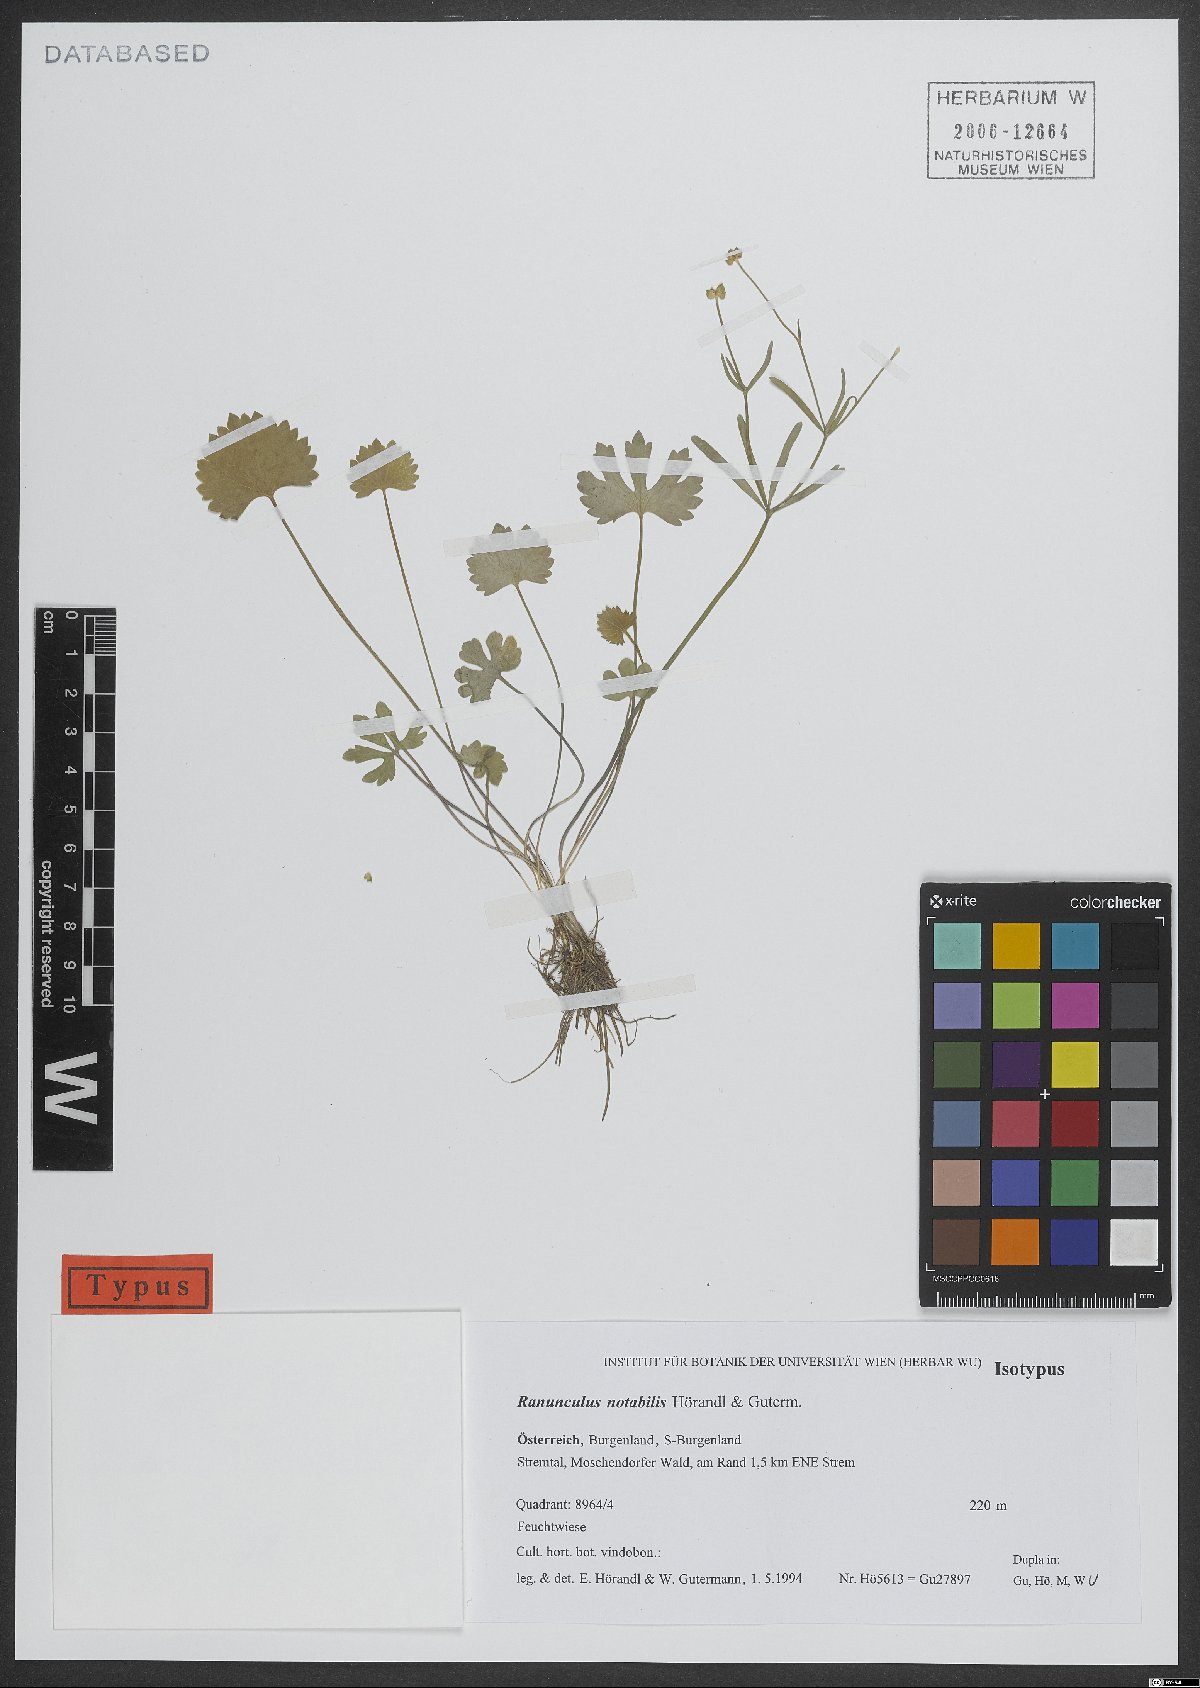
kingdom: Plantae
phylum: Tracheophyta
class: Magnoliopsida
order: Ranunculales
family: Ranunculaceae
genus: Ranunculus
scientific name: Ranunculus notabilis
